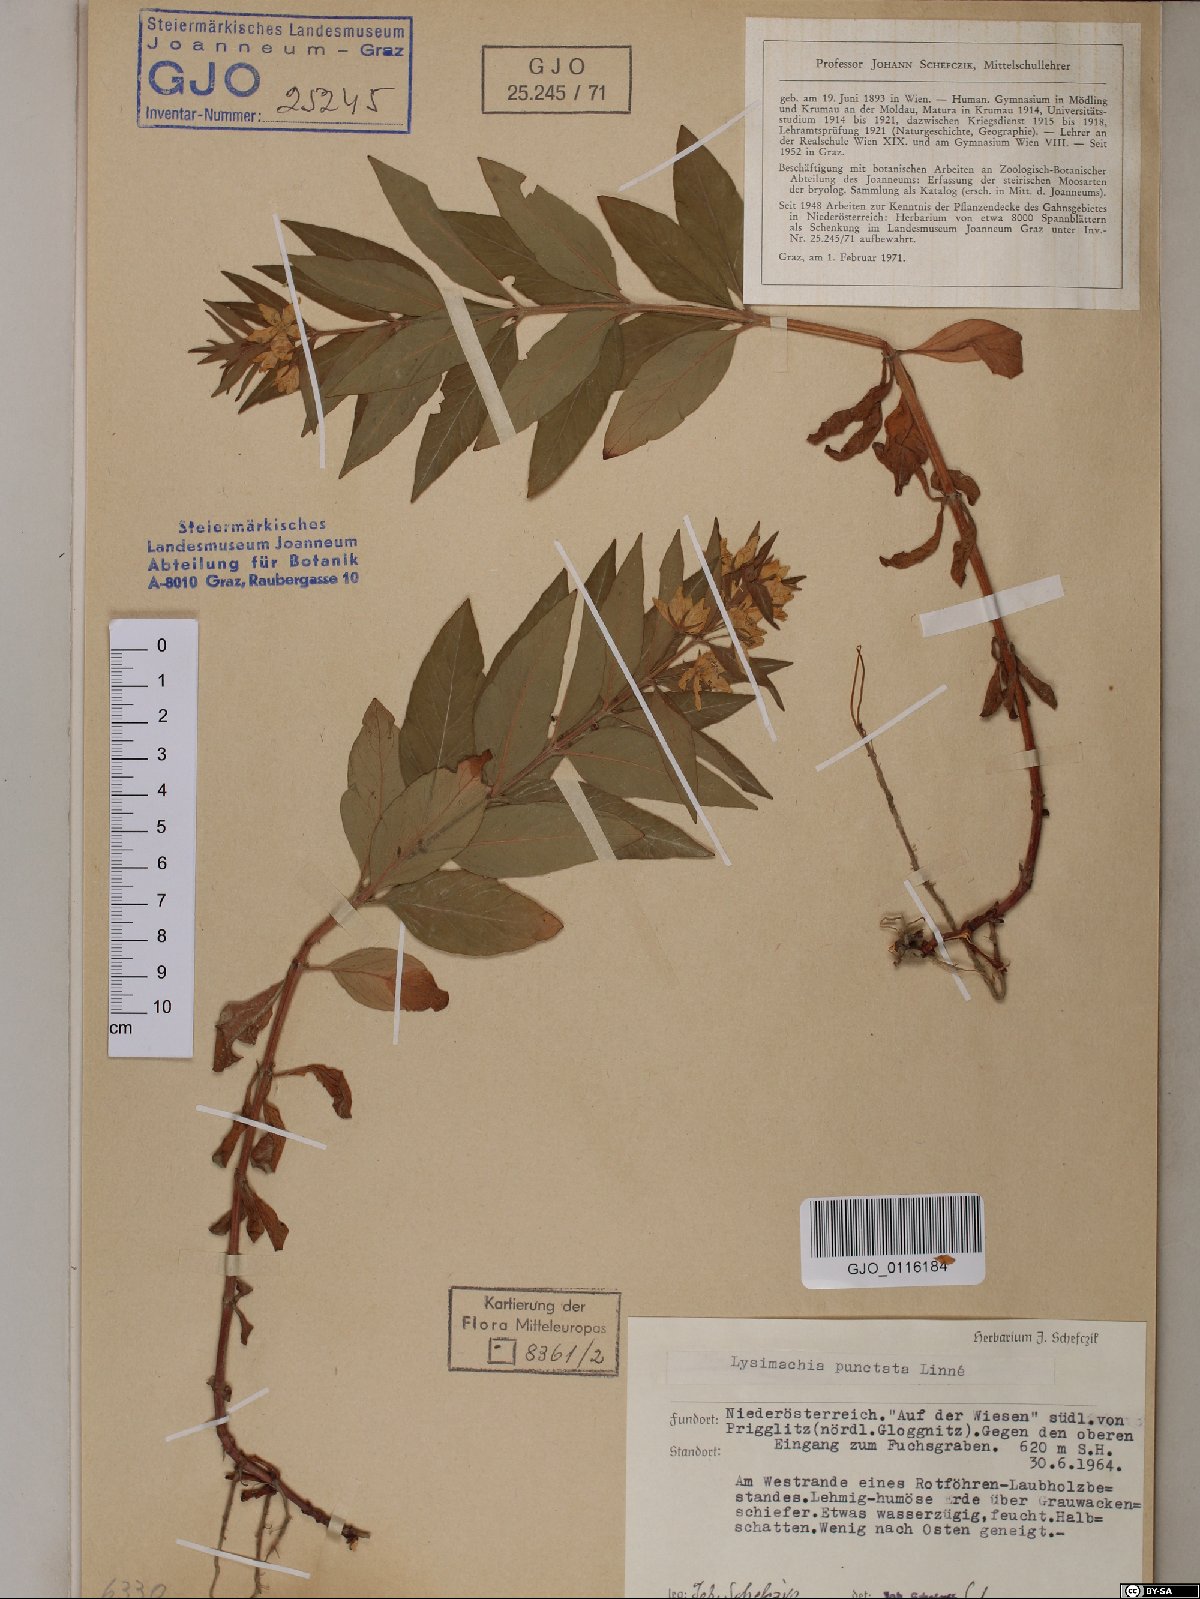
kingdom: Plantae
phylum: Tracheophyta
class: Magnoliopsida
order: Ericales
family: Primulaceae
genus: Lysimachia
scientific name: Lysimachia punctata
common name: Dotted loosestrife
